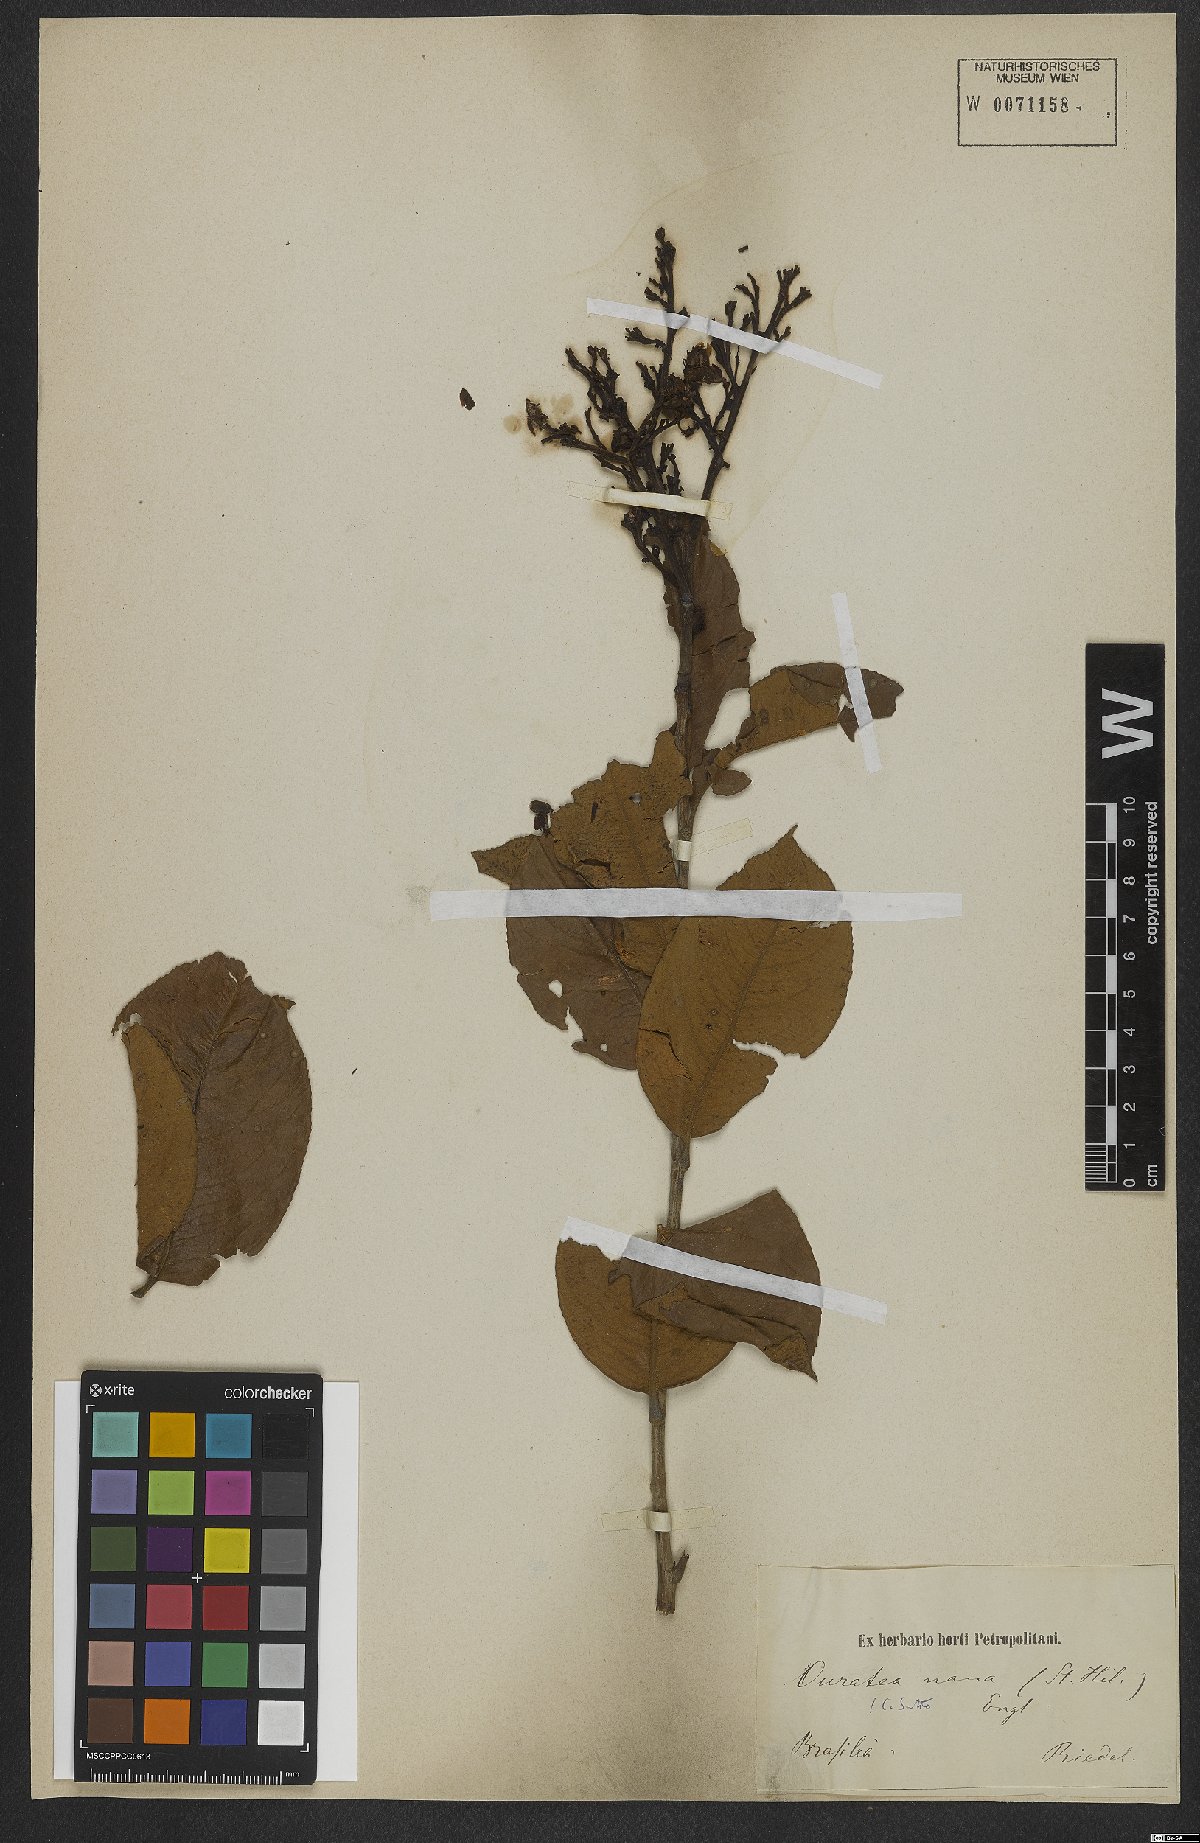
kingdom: Plantae
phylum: Tracheophyta
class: Magnoliopsida
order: Malpighiales
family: Ochnaceae
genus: Ouratea
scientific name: Ouratea nana
